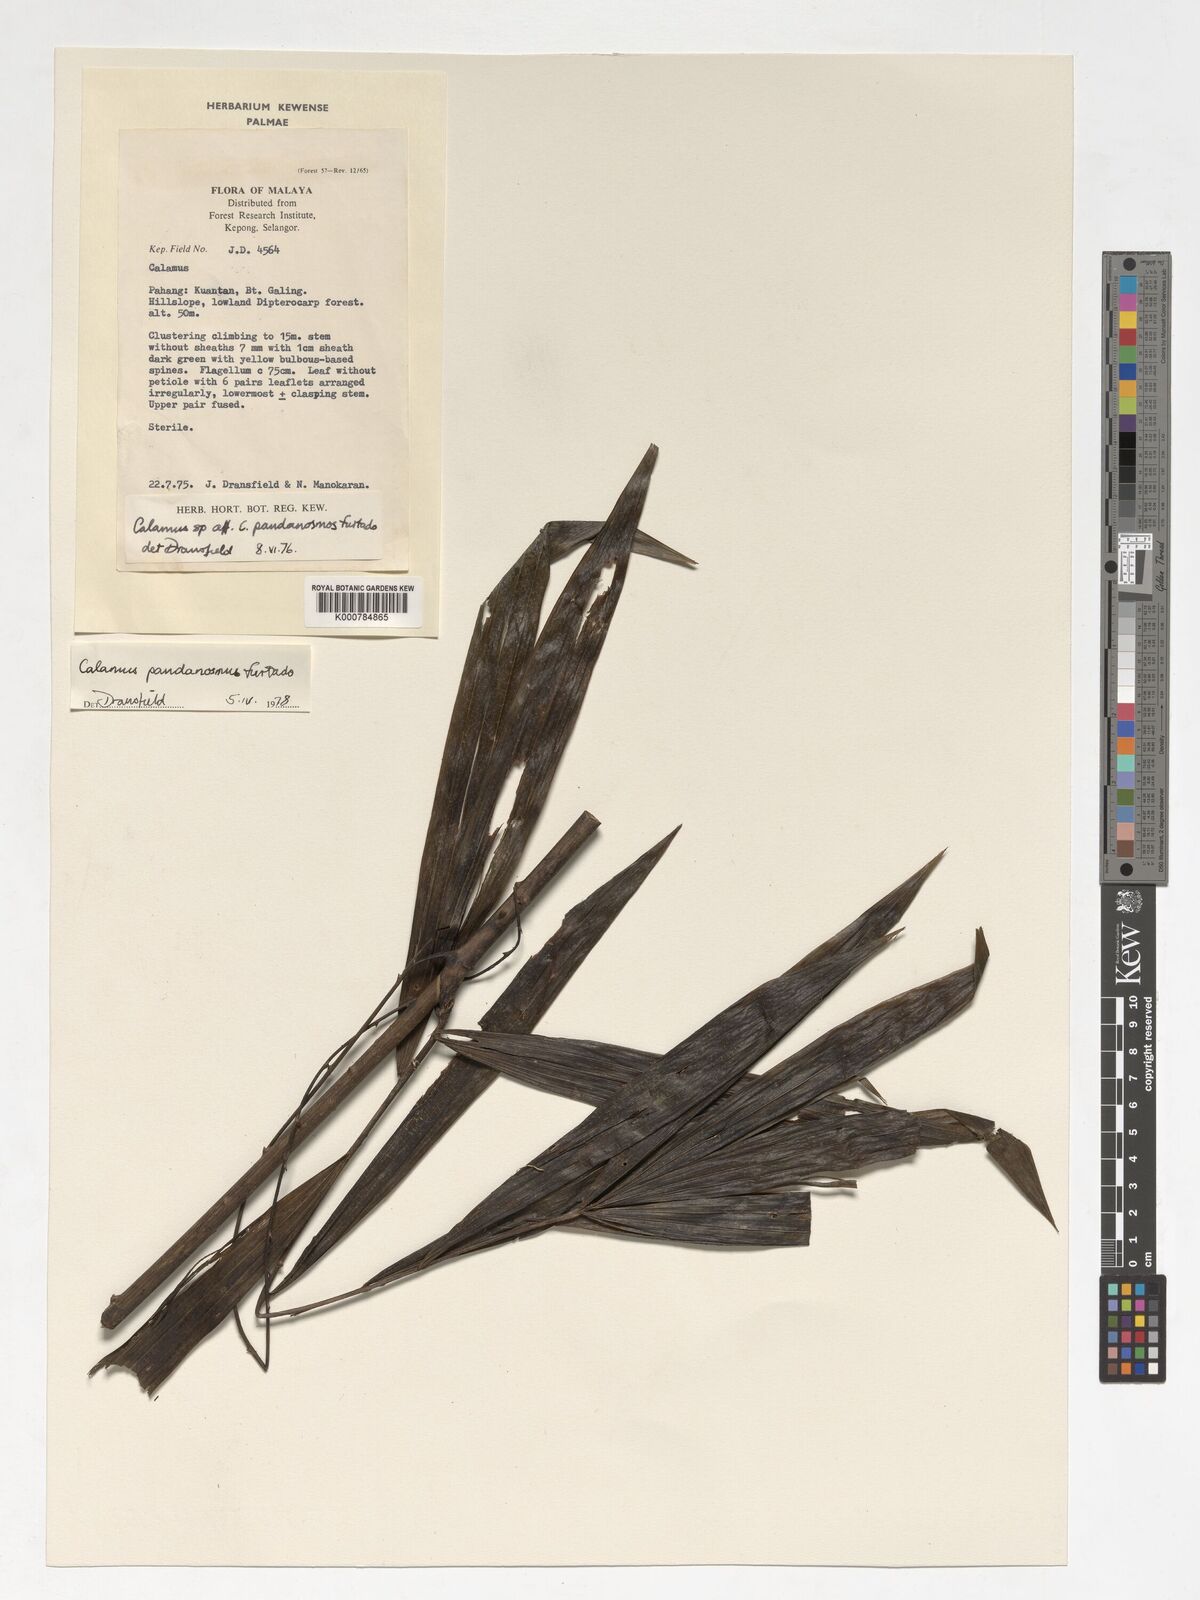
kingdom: Plantae
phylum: Tracheophyta
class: Liliopsida
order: Arecales
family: Arecaceae
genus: Calamus
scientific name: Calamus pandanosmus
